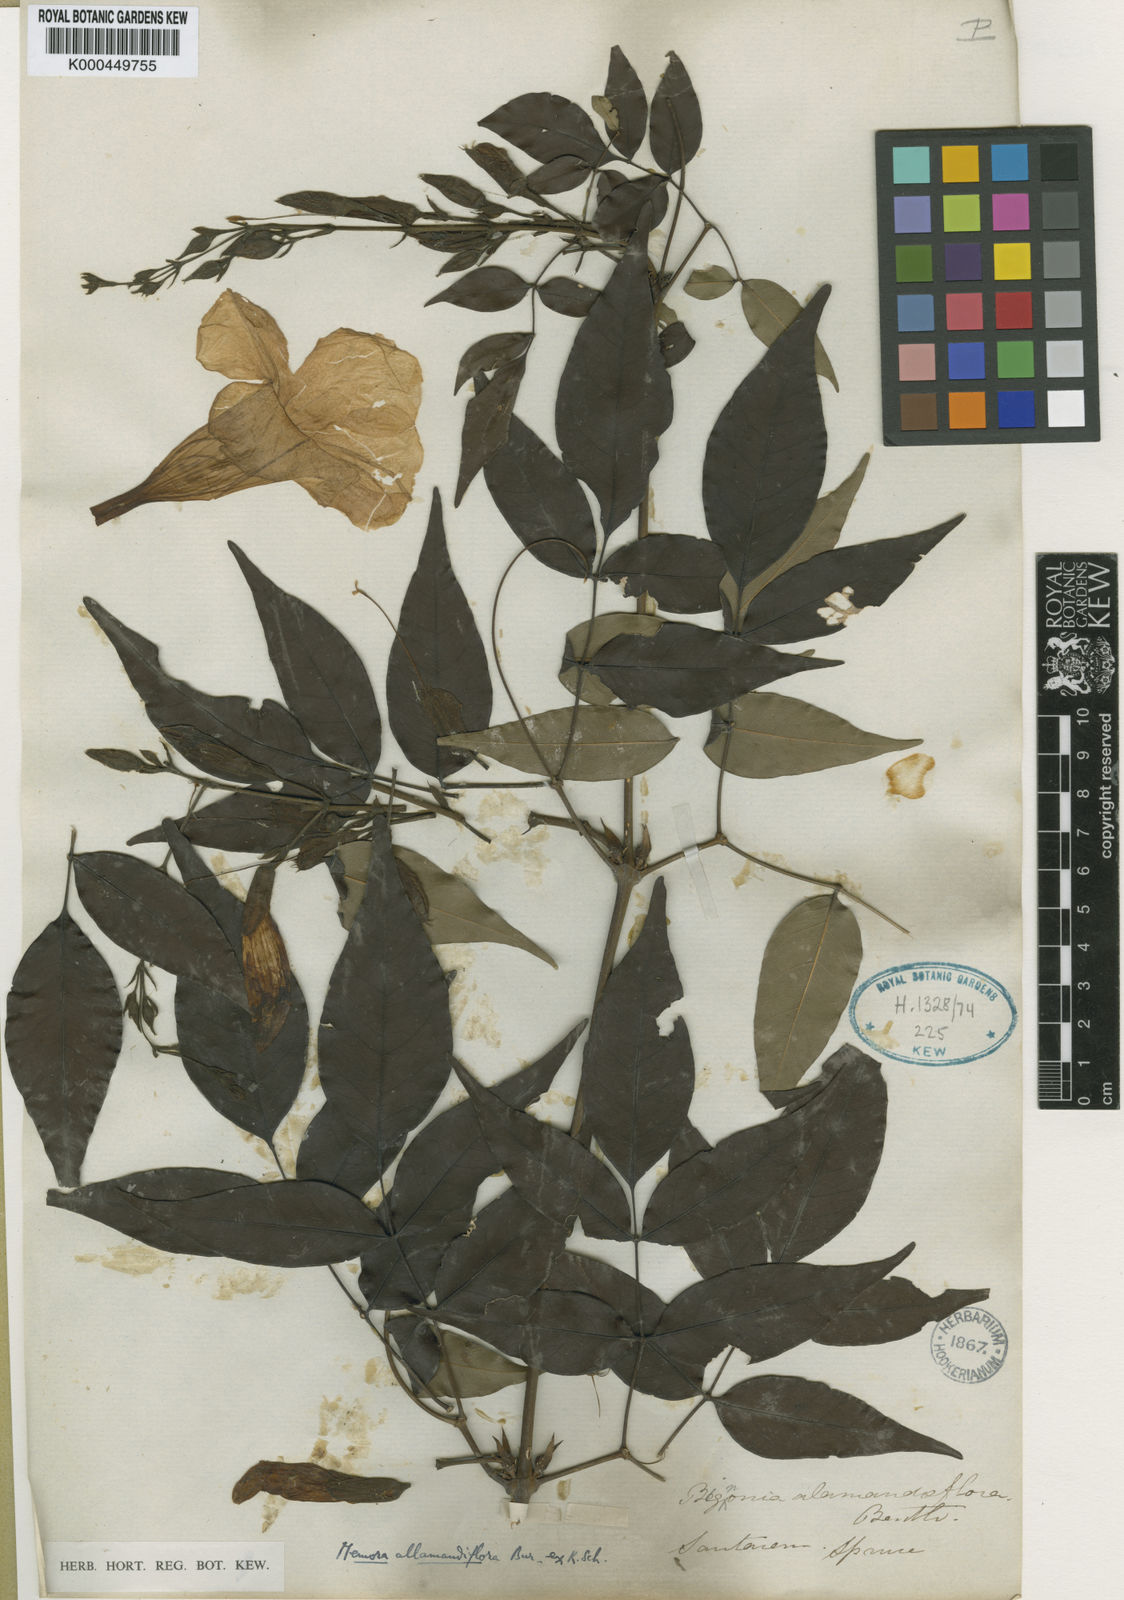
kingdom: Plantae
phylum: Tracheophyta
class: Magnoliopsida
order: Lamiales
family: Bignoniaceae
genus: Adenocalymma
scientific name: Adenocalymma
